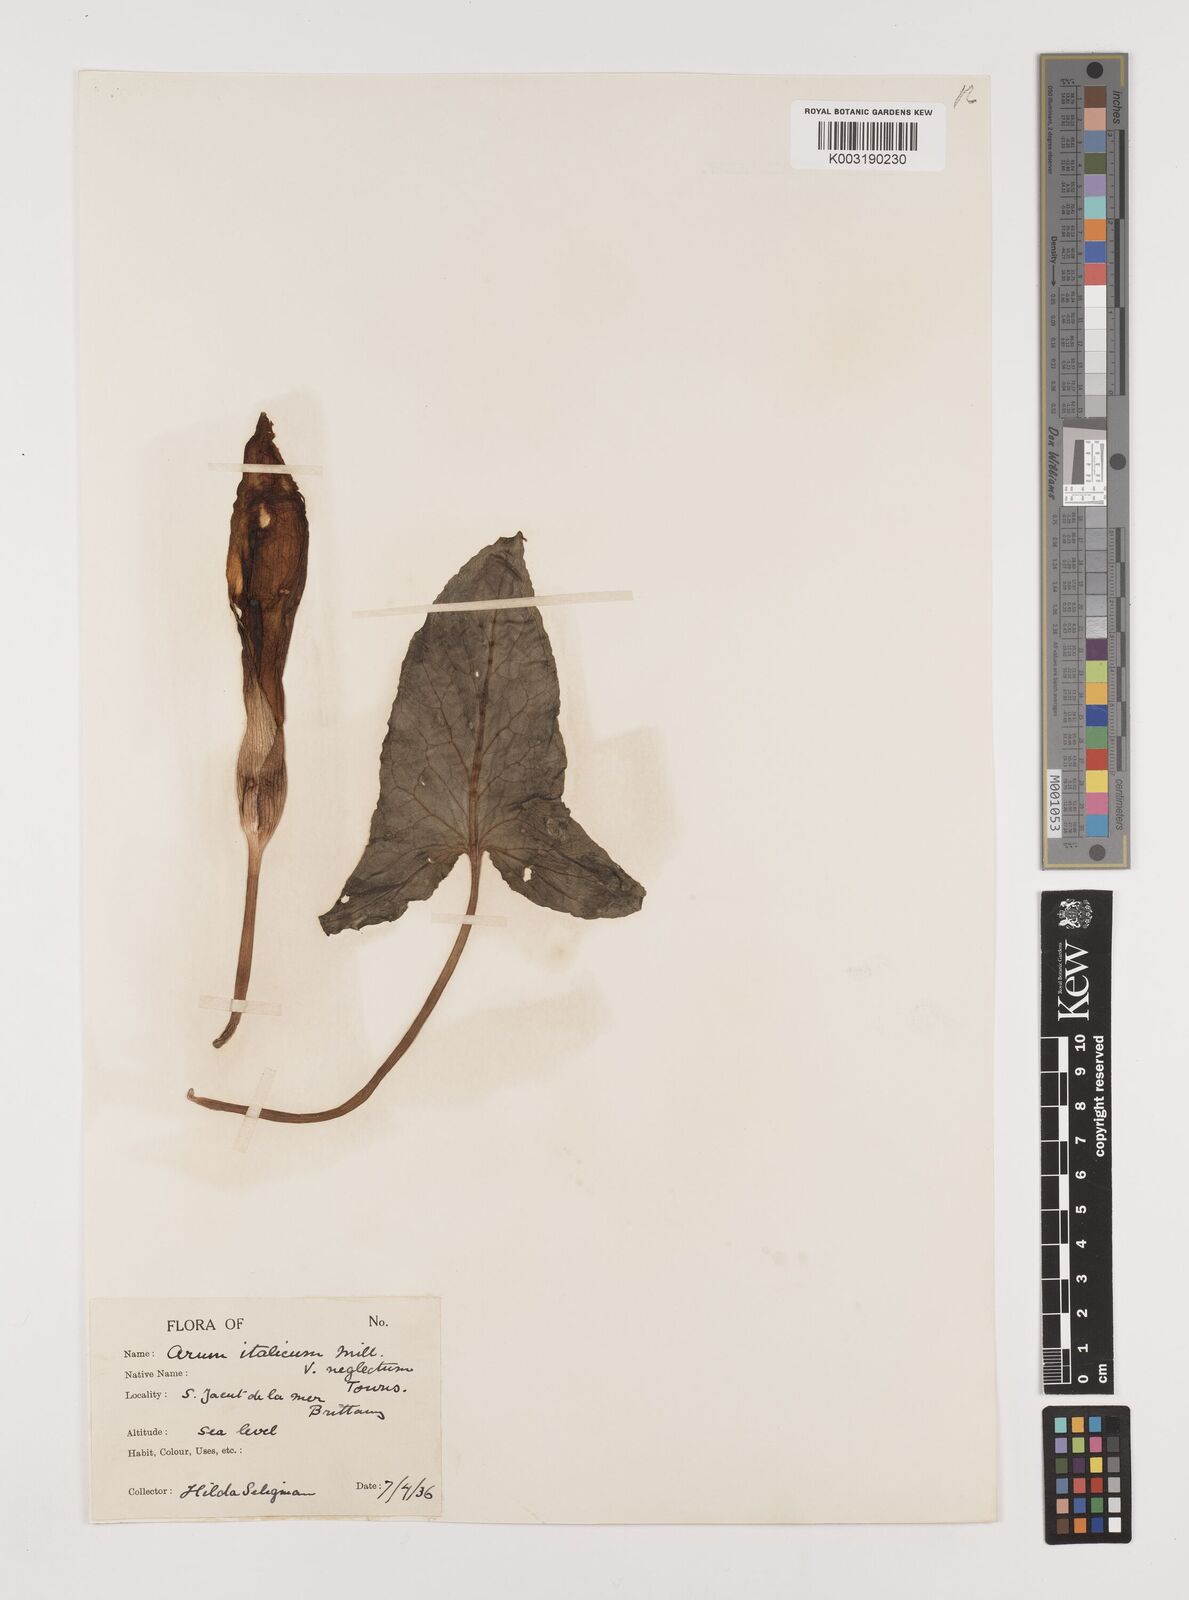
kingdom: Plantae
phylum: Tracheophyta
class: Liliopsida
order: Alismatales
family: Araceae
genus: Arum
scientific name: Arum italicum
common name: Italian lords-and-ladies
